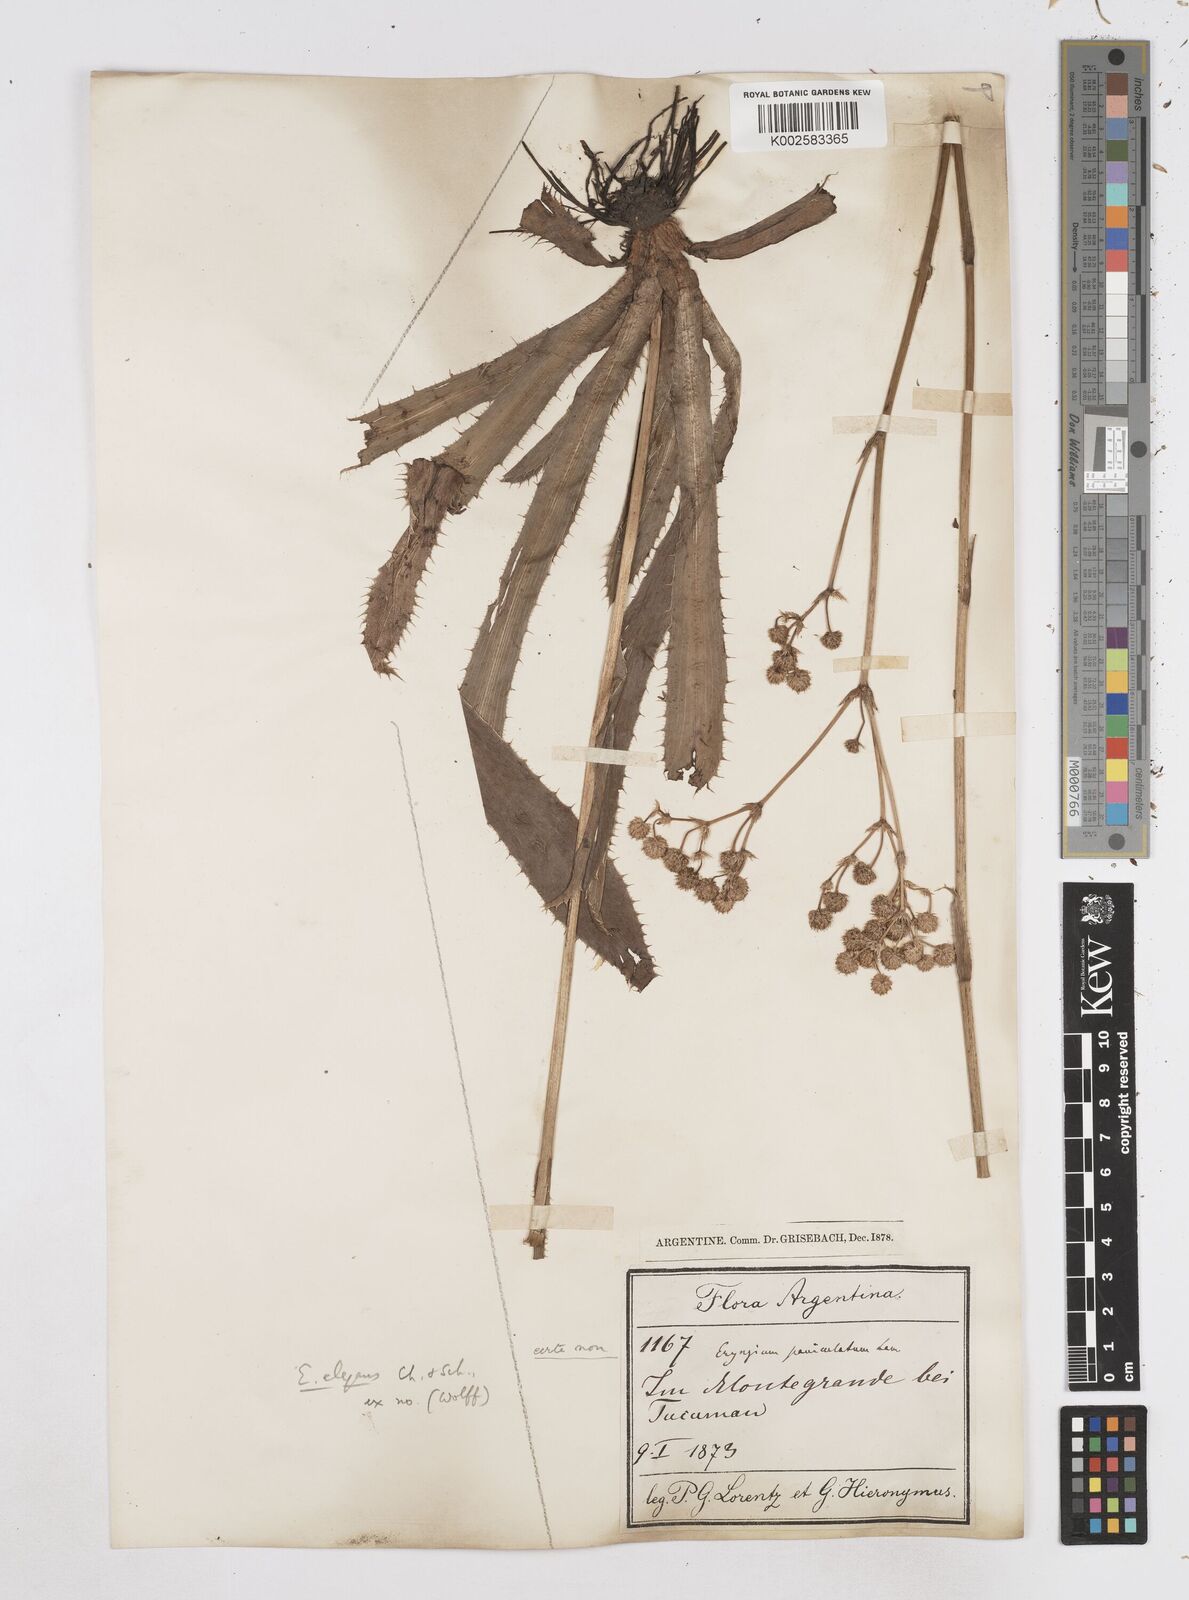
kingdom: Plantae
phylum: Tracheophyta
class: Magnoliopsida
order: Apiales
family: Apiaceae
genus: Eryngium
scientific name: Eryngium elegans
